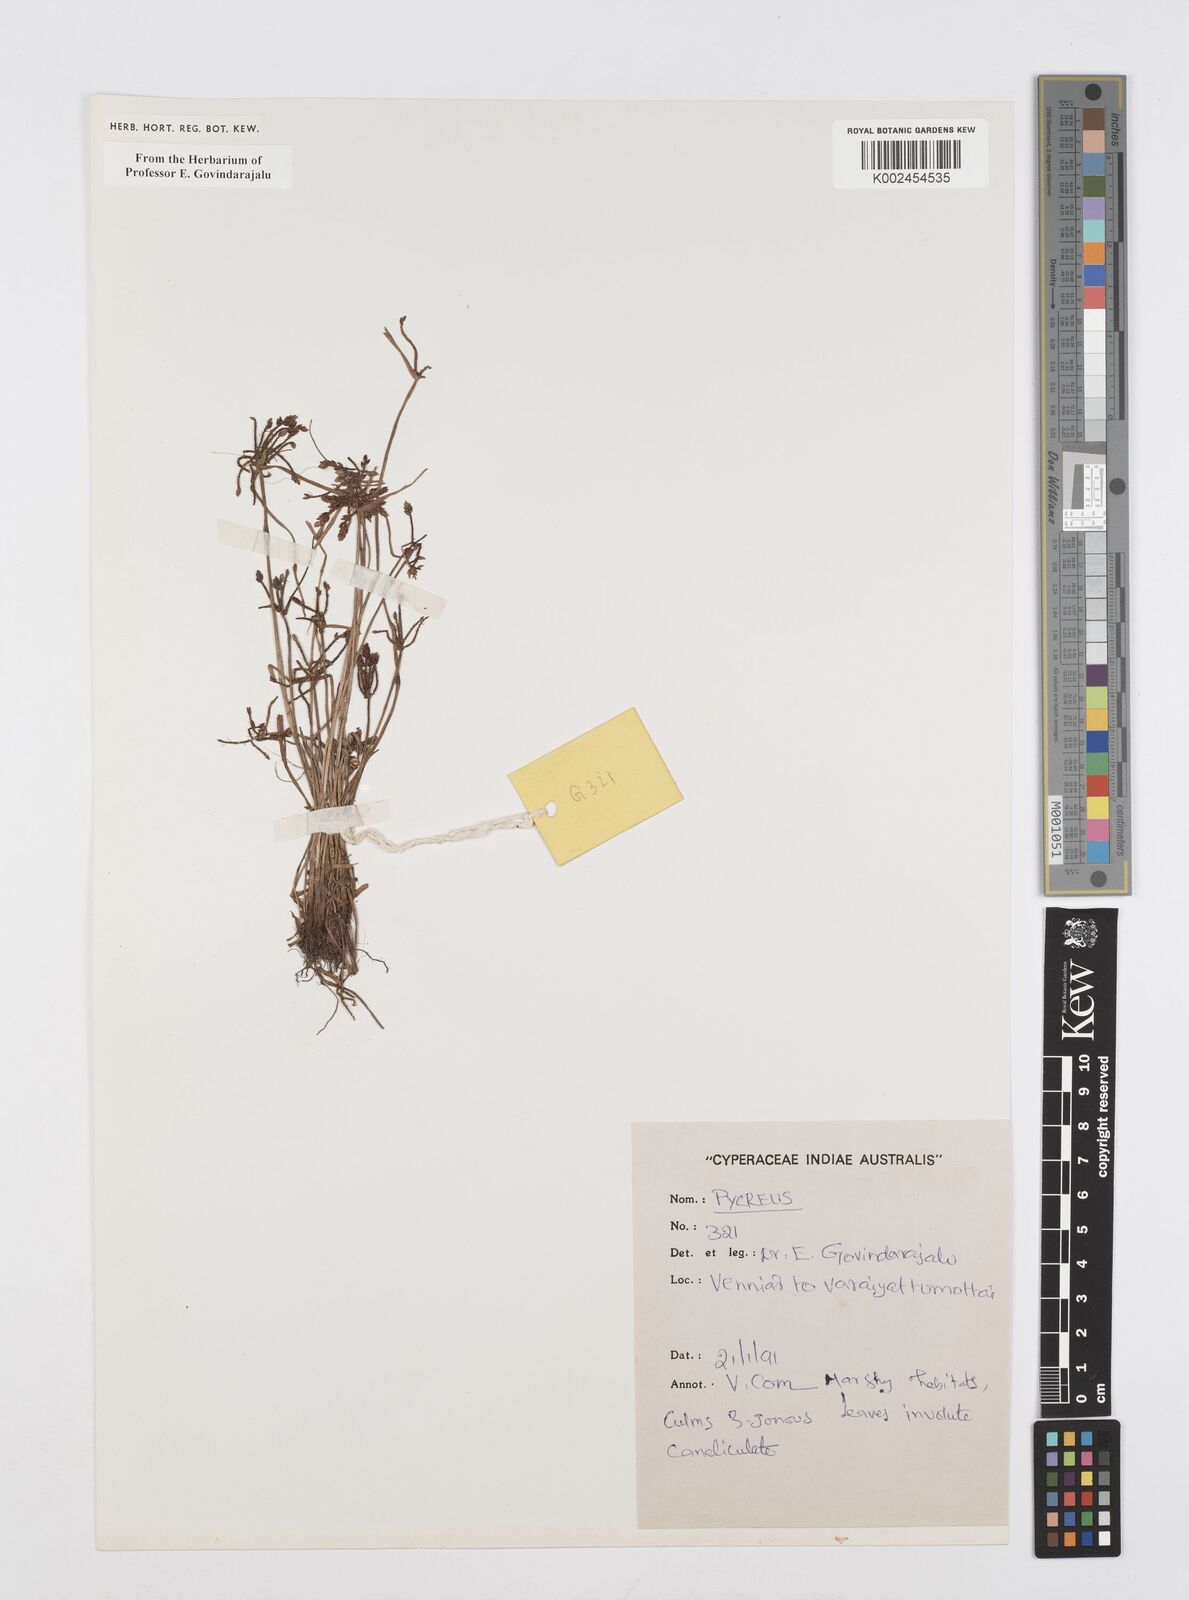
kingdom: Plantae
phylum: Tracheophyta
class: Liliopsida
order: Poales
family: Cyperaceae
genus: Cyperus
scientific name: Cyperus
